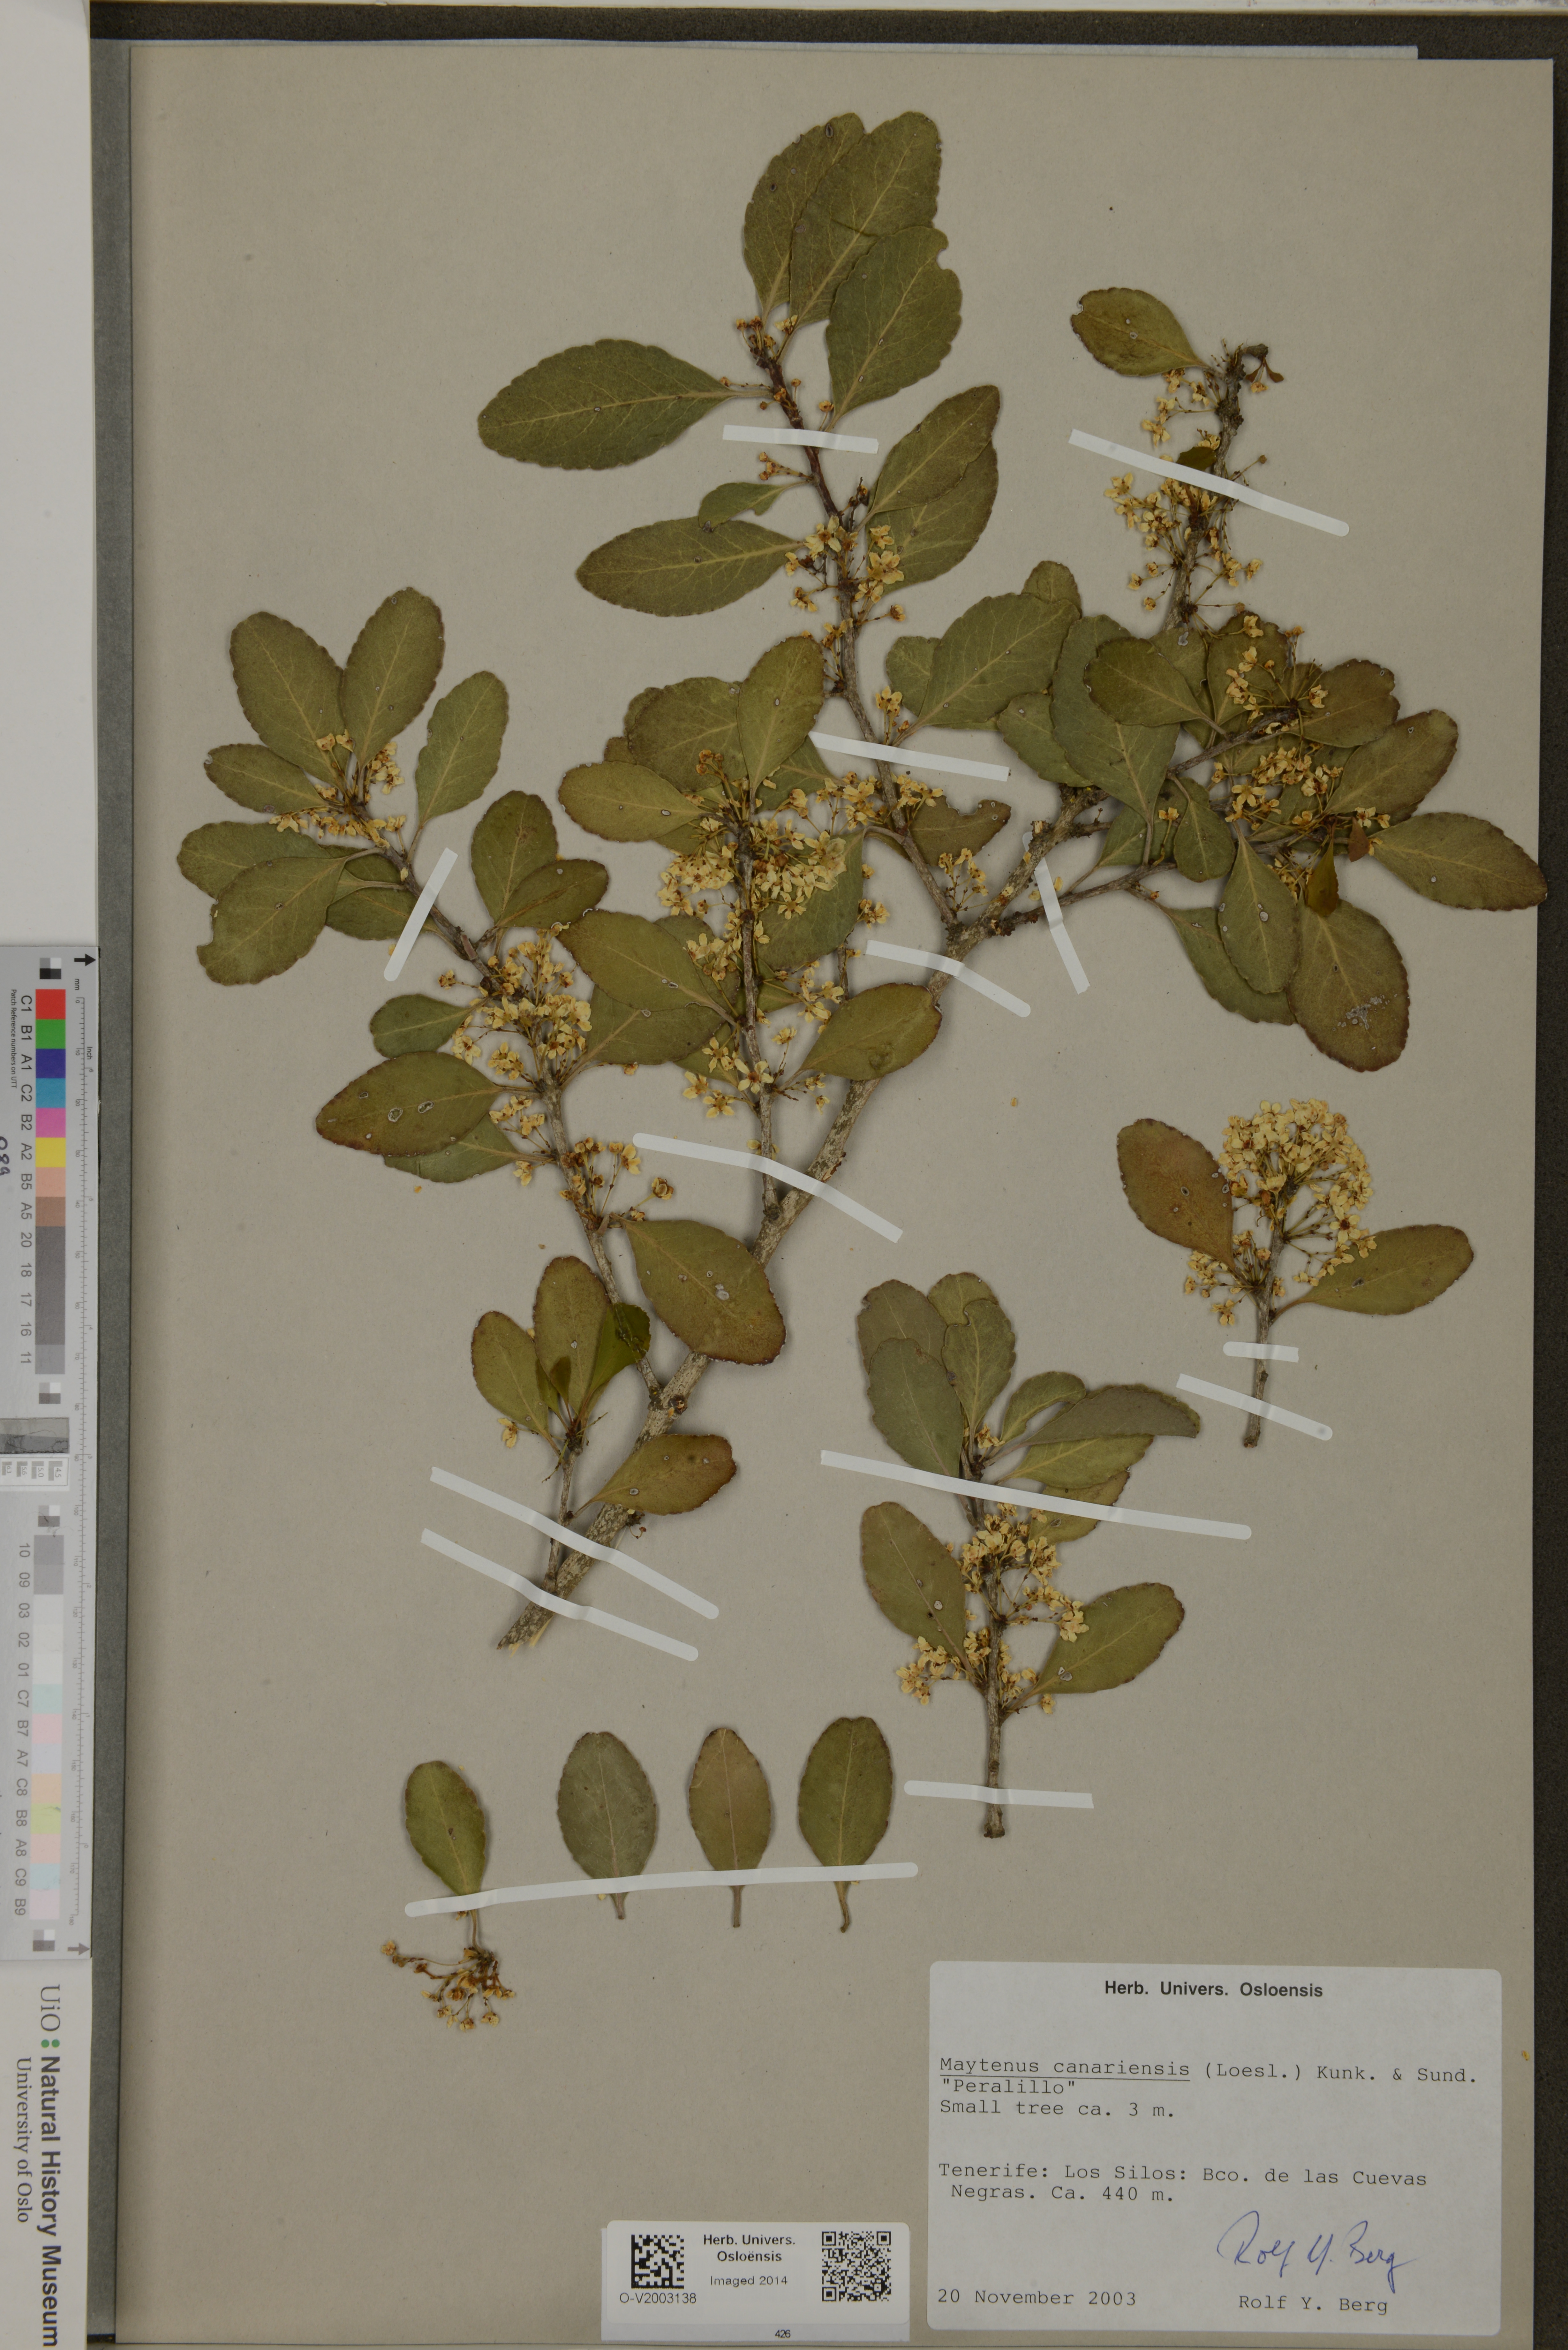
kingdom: Plantae
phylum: Tracheophyta
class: Magnoliopsida
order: Celastrales
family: Celastraceae
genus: Gymnosporia
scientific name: Gymnosporia cassinoides
